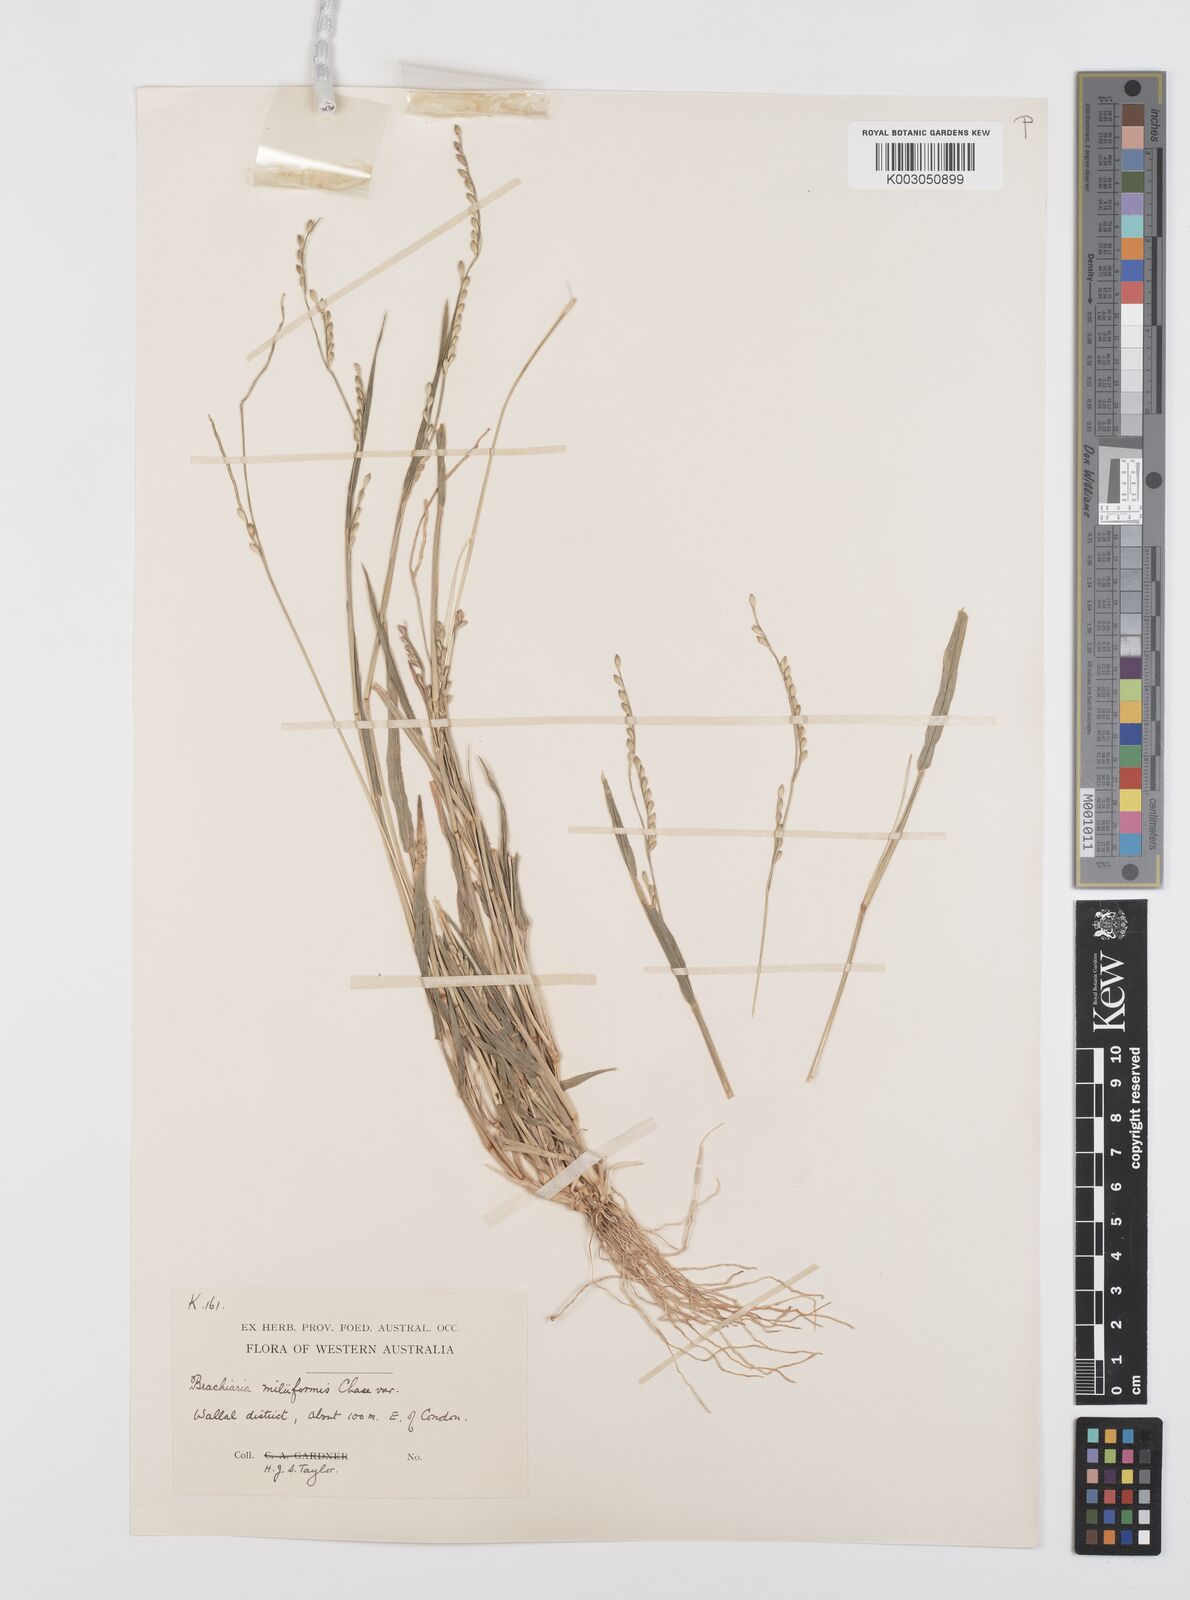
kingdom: Plantae
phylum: Tracheophyta
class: Liliopsida
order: Poales
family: Poaceae
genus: Urochloa
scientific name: Urochloa subquadripara
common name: Armgrass millet
